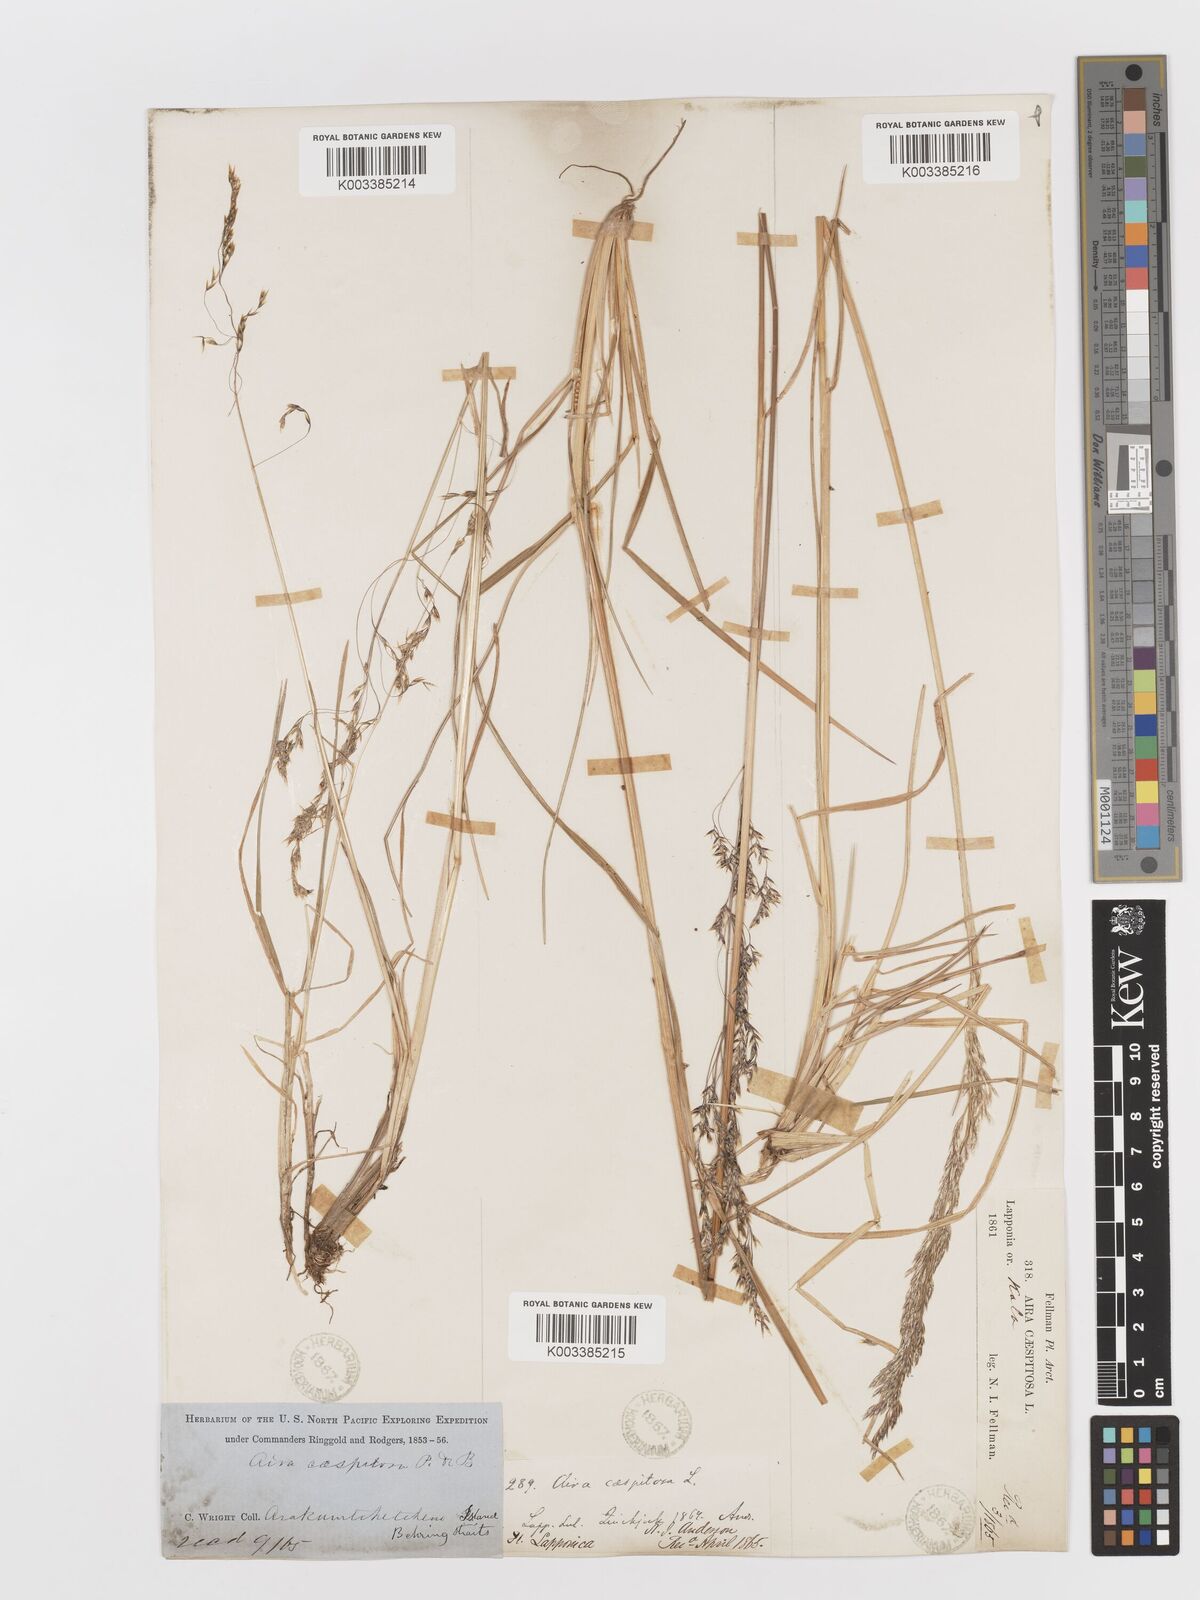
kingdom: Plantae
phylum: Tracheophyta
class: Liliopsida
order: Poales
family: Poaceae
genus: Deschampsia
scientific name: Deschampsia cespitosa
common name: Tufted hair-grass
